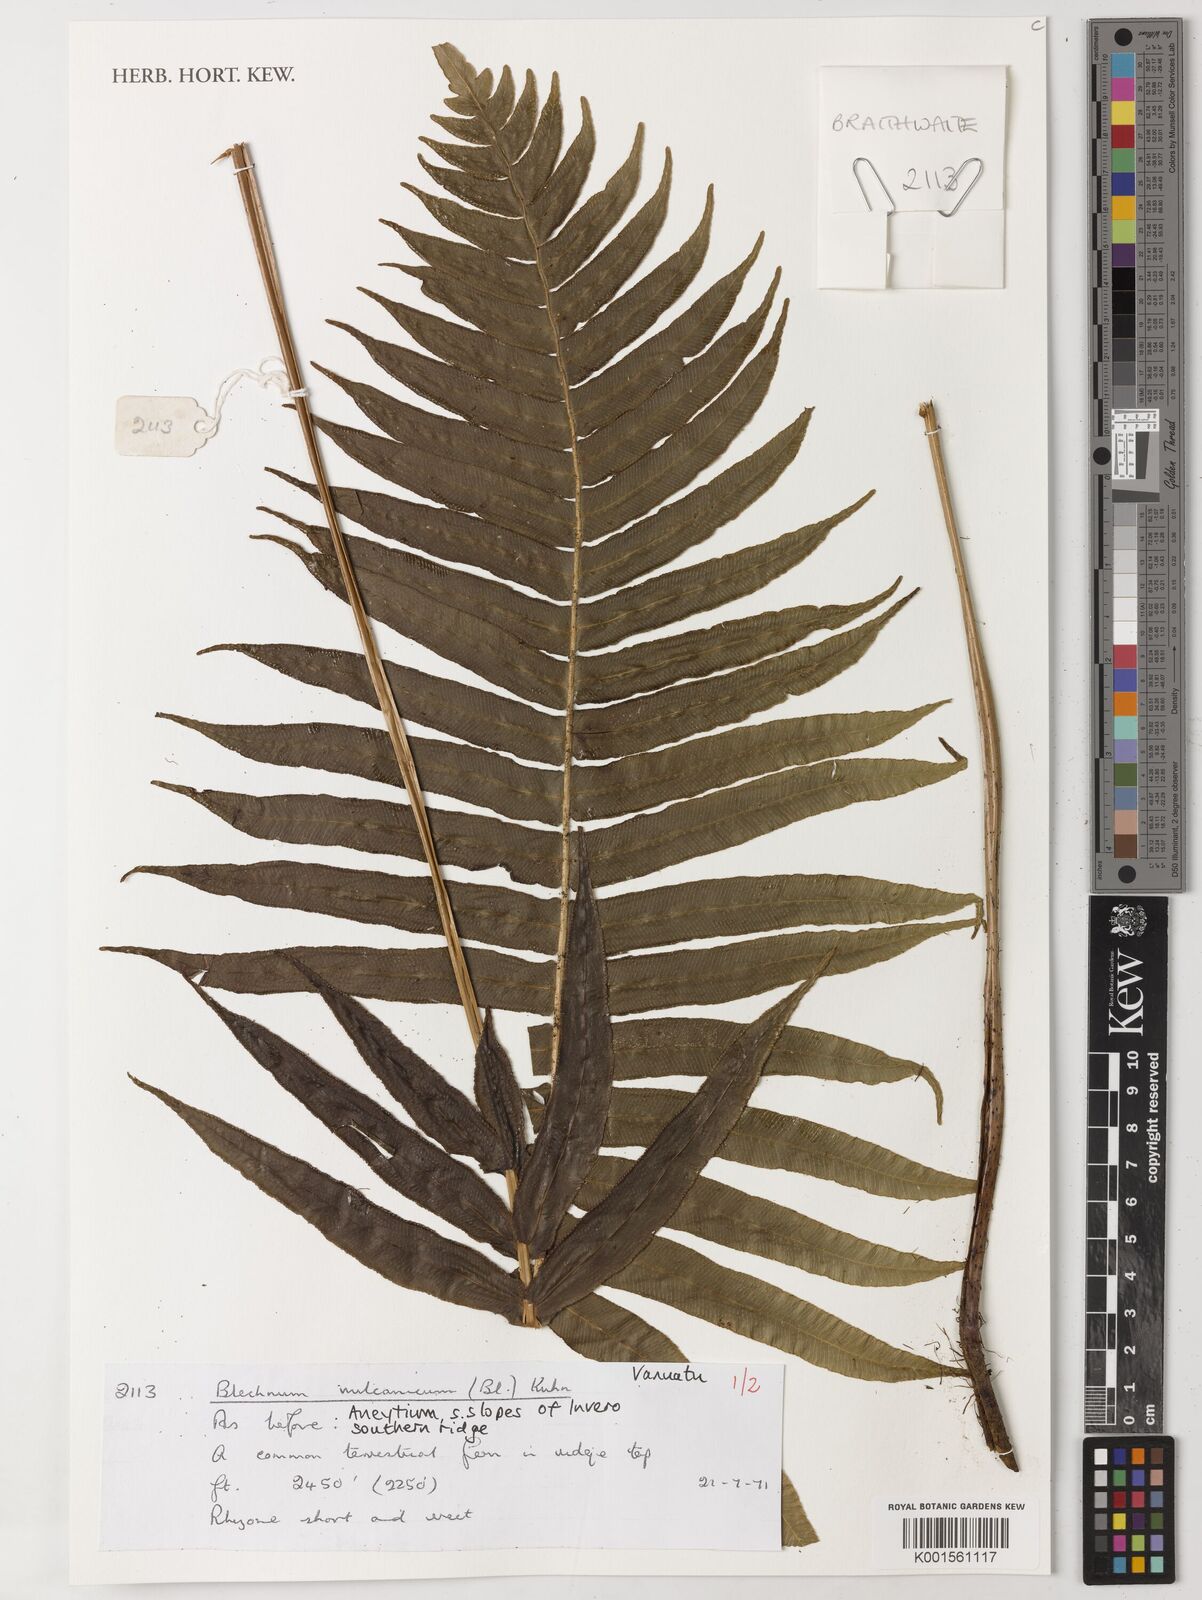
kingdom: Plantae
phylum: Tracheophyta
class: Polypodiopsida
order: Polypodiales
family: Blechnaceae
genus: Cranfillia
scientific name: Cranfillia vulcanica
